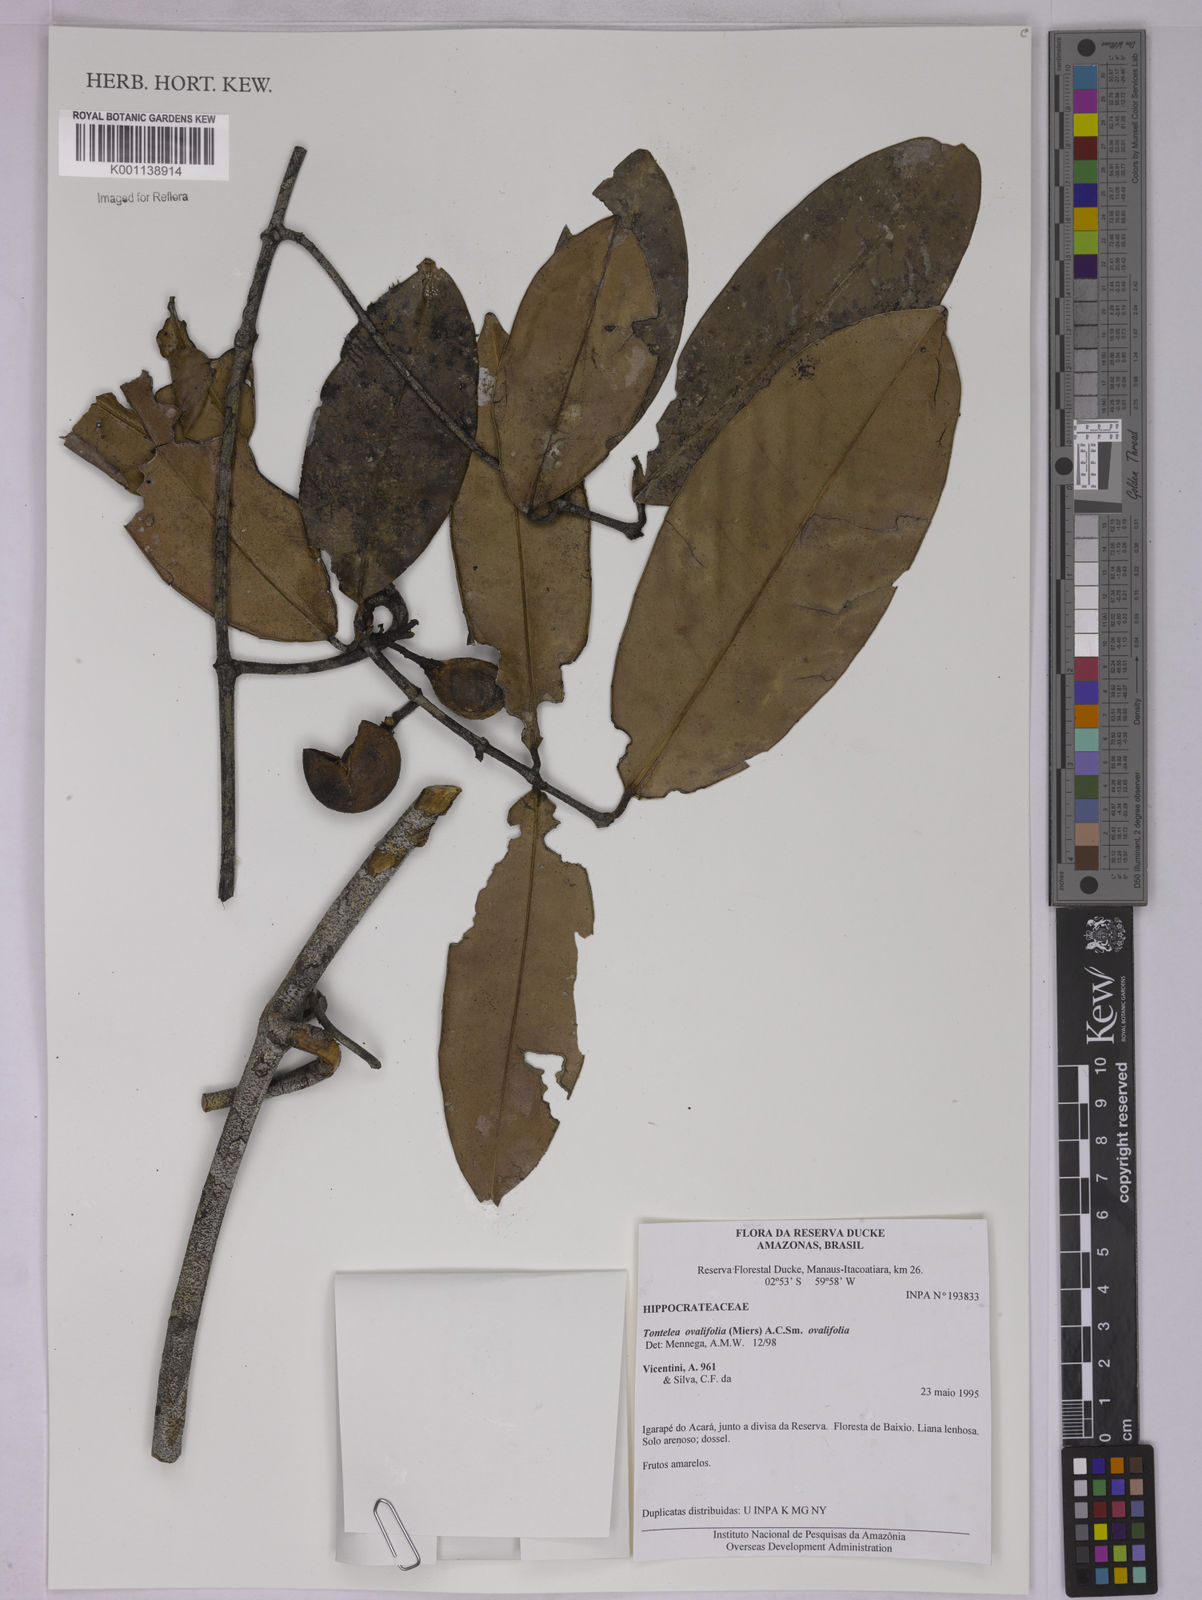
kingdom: Plantae
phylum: Tracheophyta
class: Magnoliopsida
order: Celastrales
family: Celastraceae
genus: Tontelea
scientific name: Tontelea passiflora
